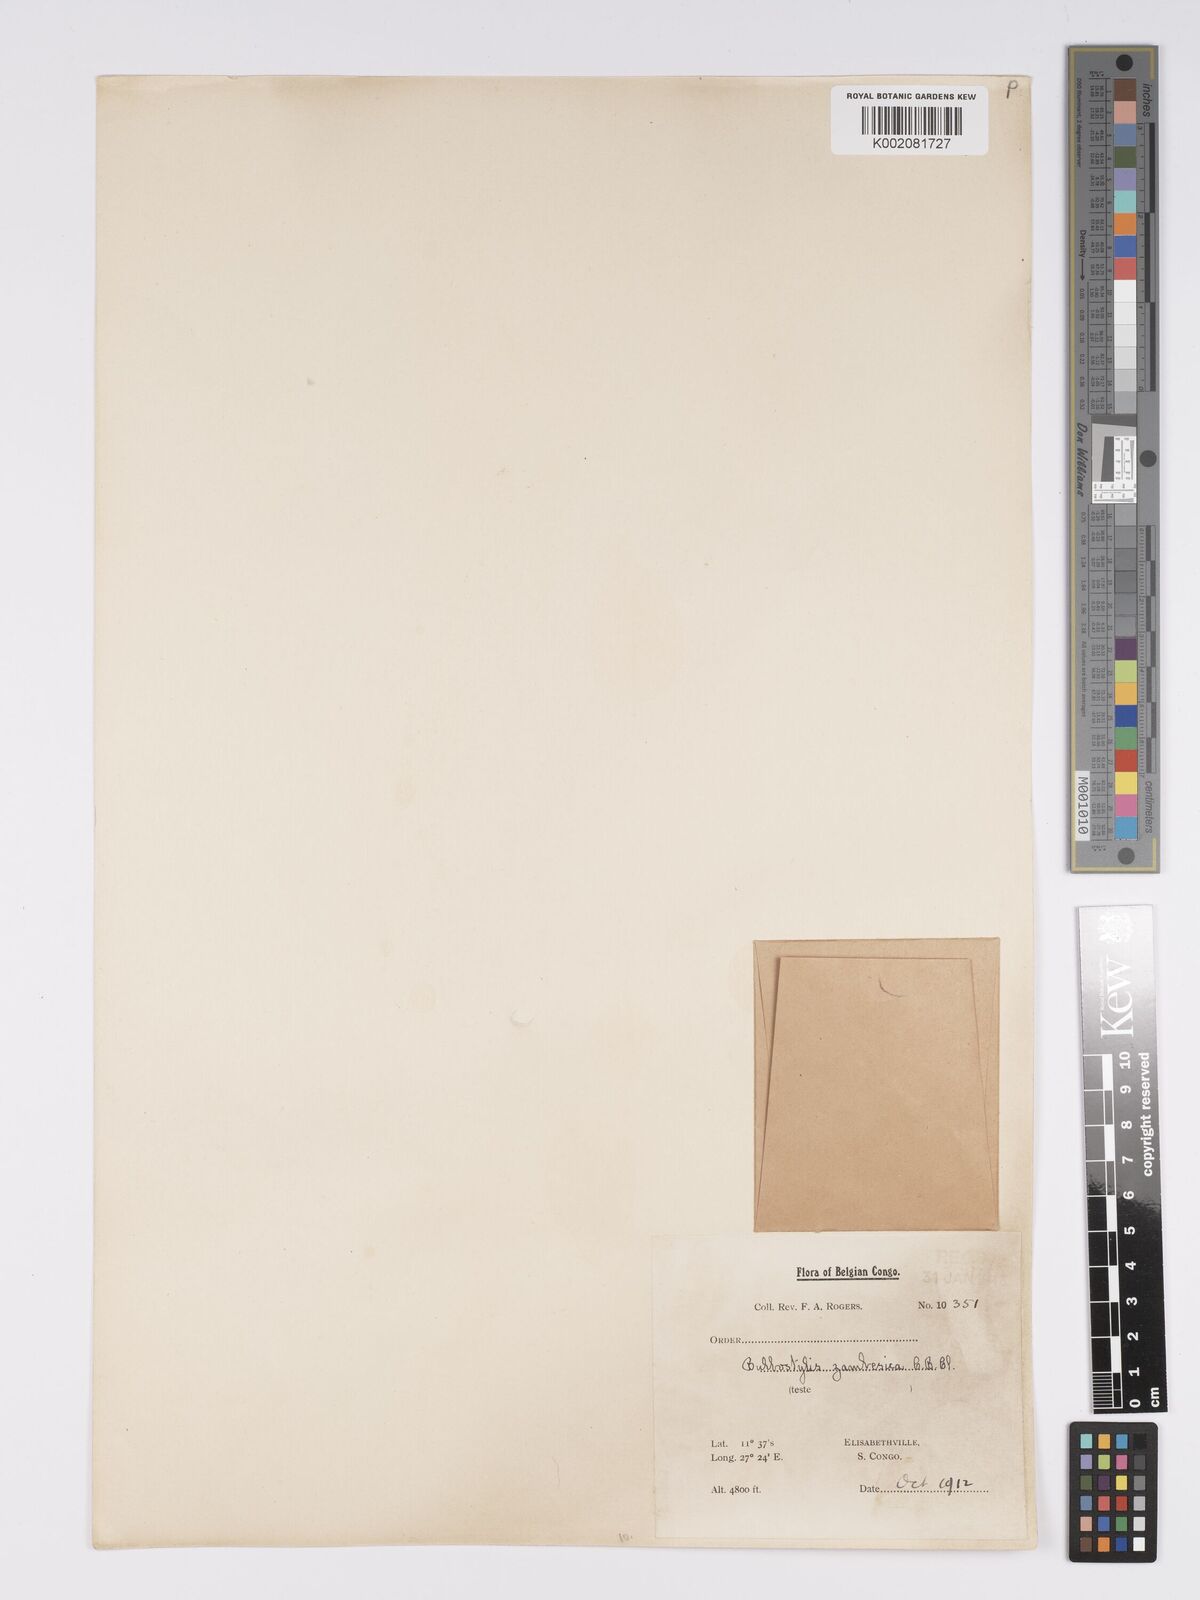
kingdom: Plantae
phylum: Tracheophyta
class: Liliopsida
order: Poales
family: Cyperaceae
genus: Bulbostylis
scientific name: Bulbostylis macra
